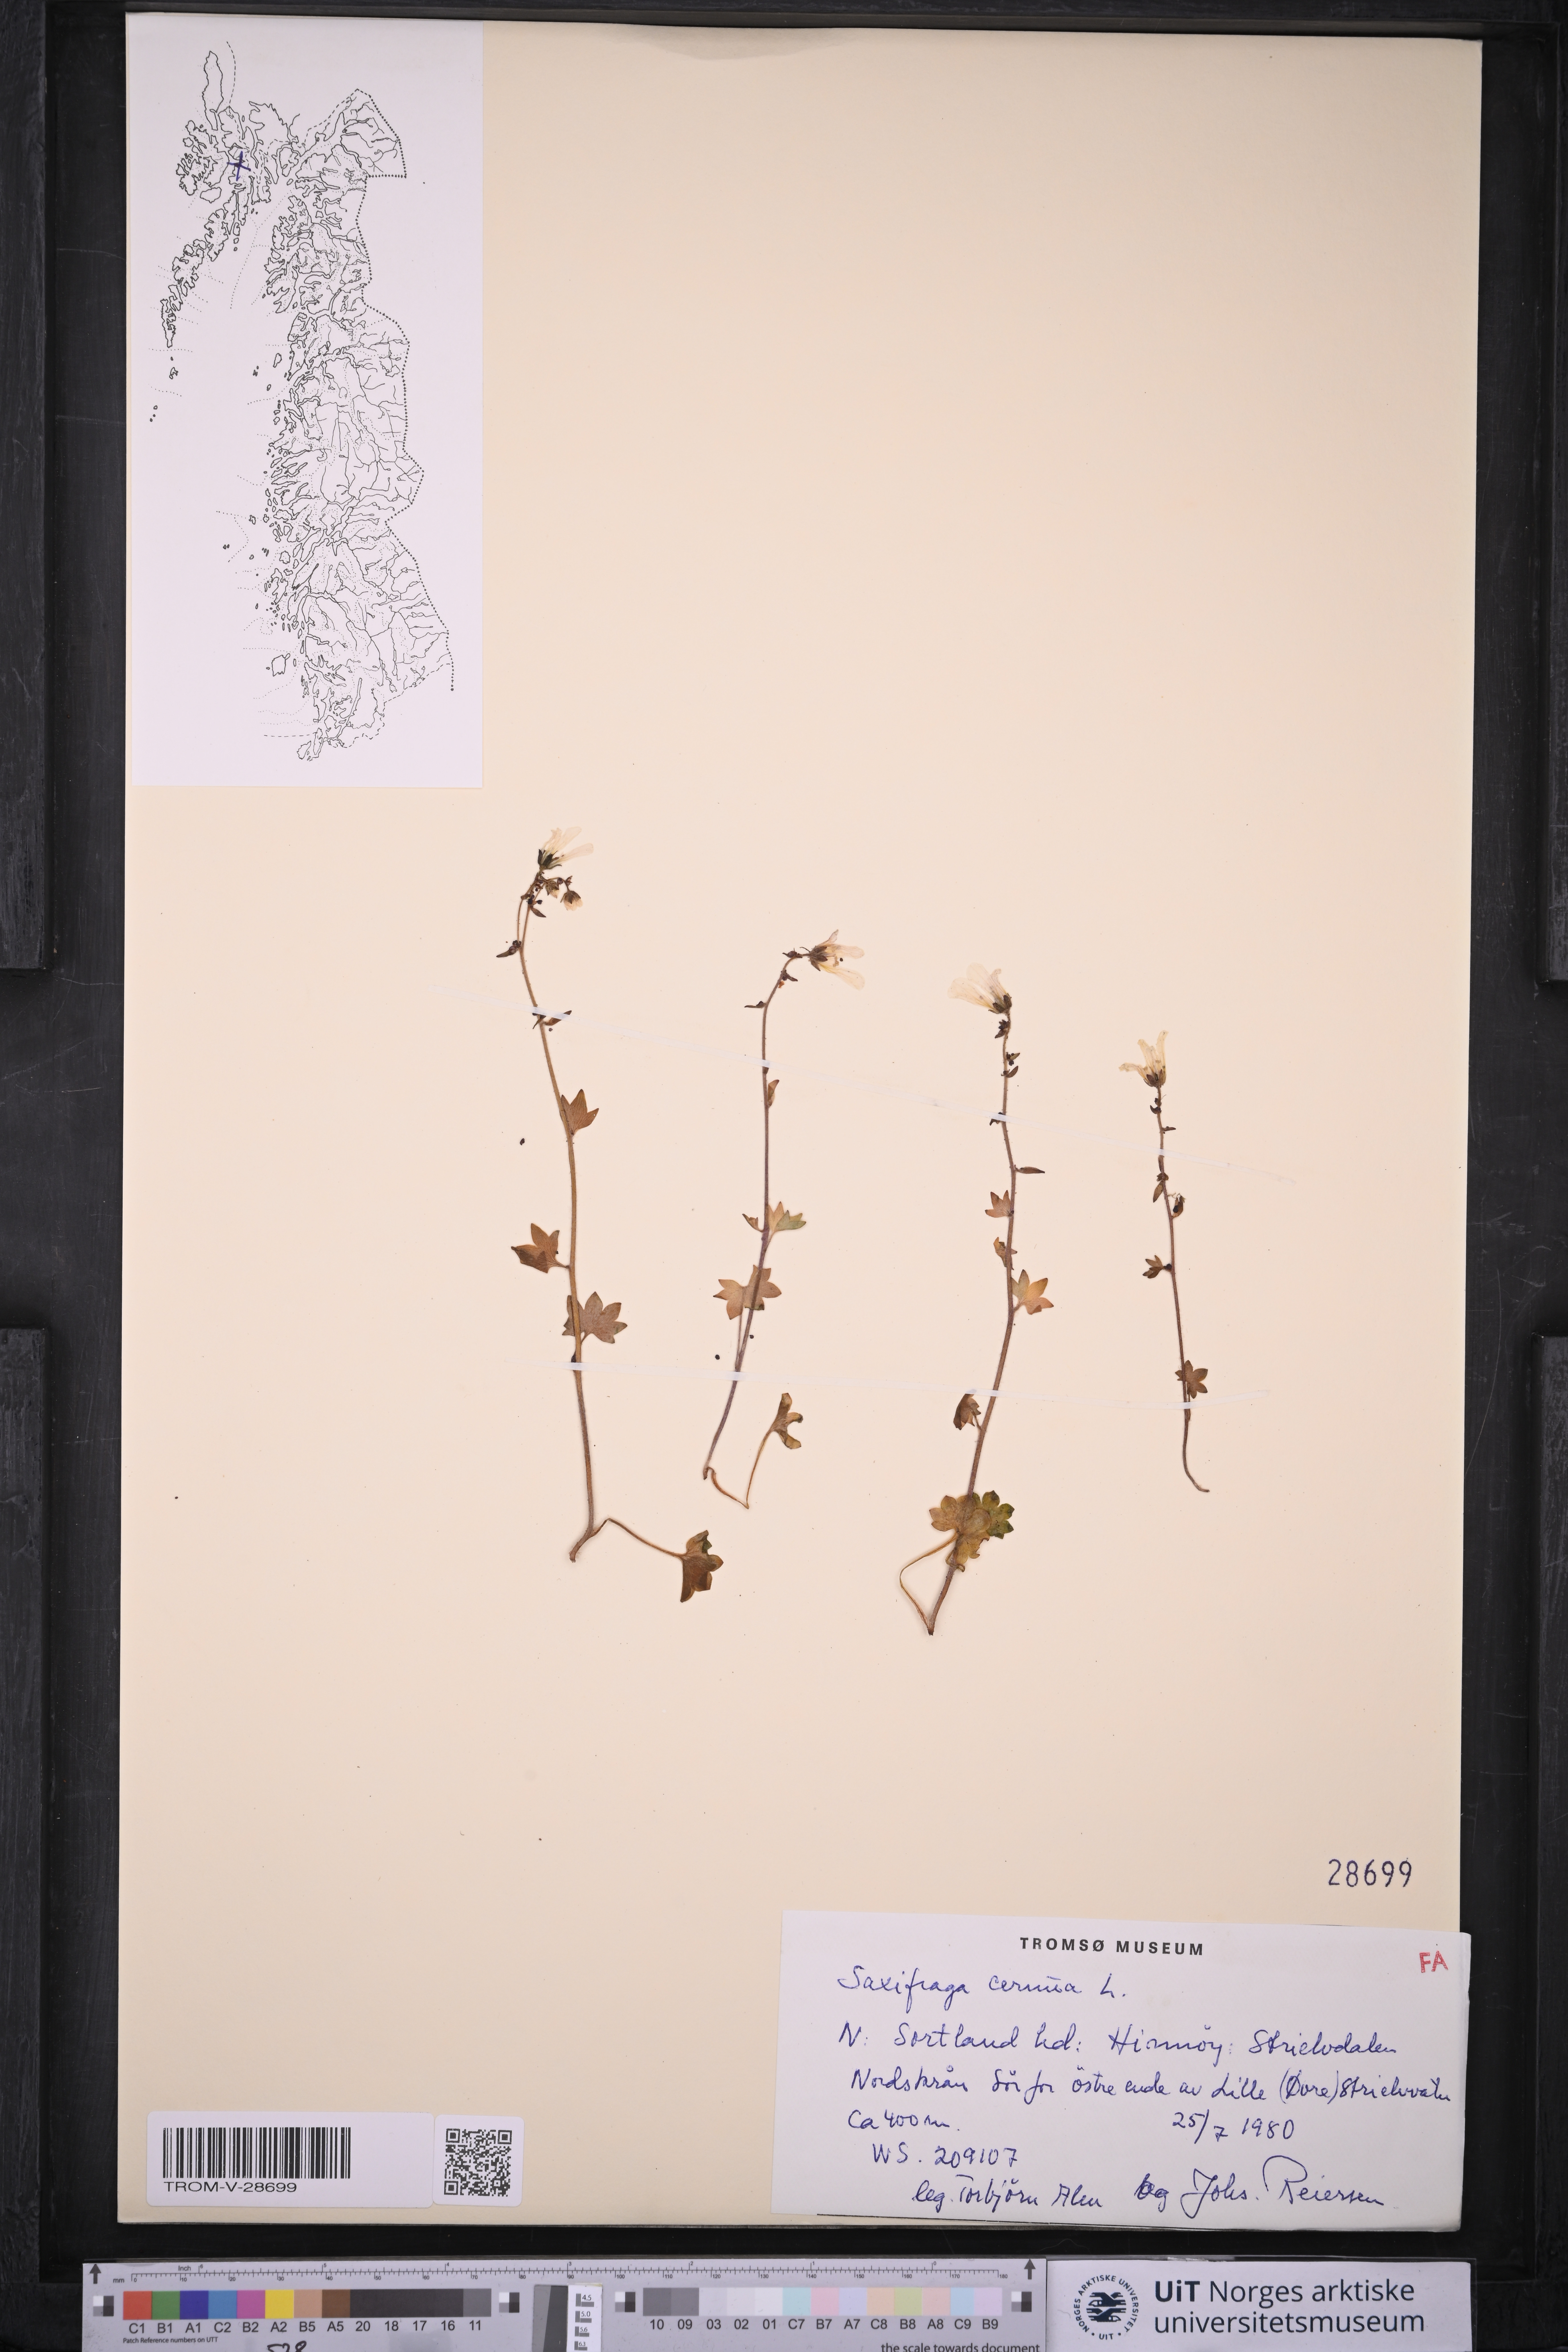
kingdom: Plantae
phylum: Tracheophyta
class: Magnoliopsida
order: Saxifragales
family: Saxifragaceae
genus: Saxifraga
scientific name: Saxifraga cernua
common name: Drooping saxifrage
